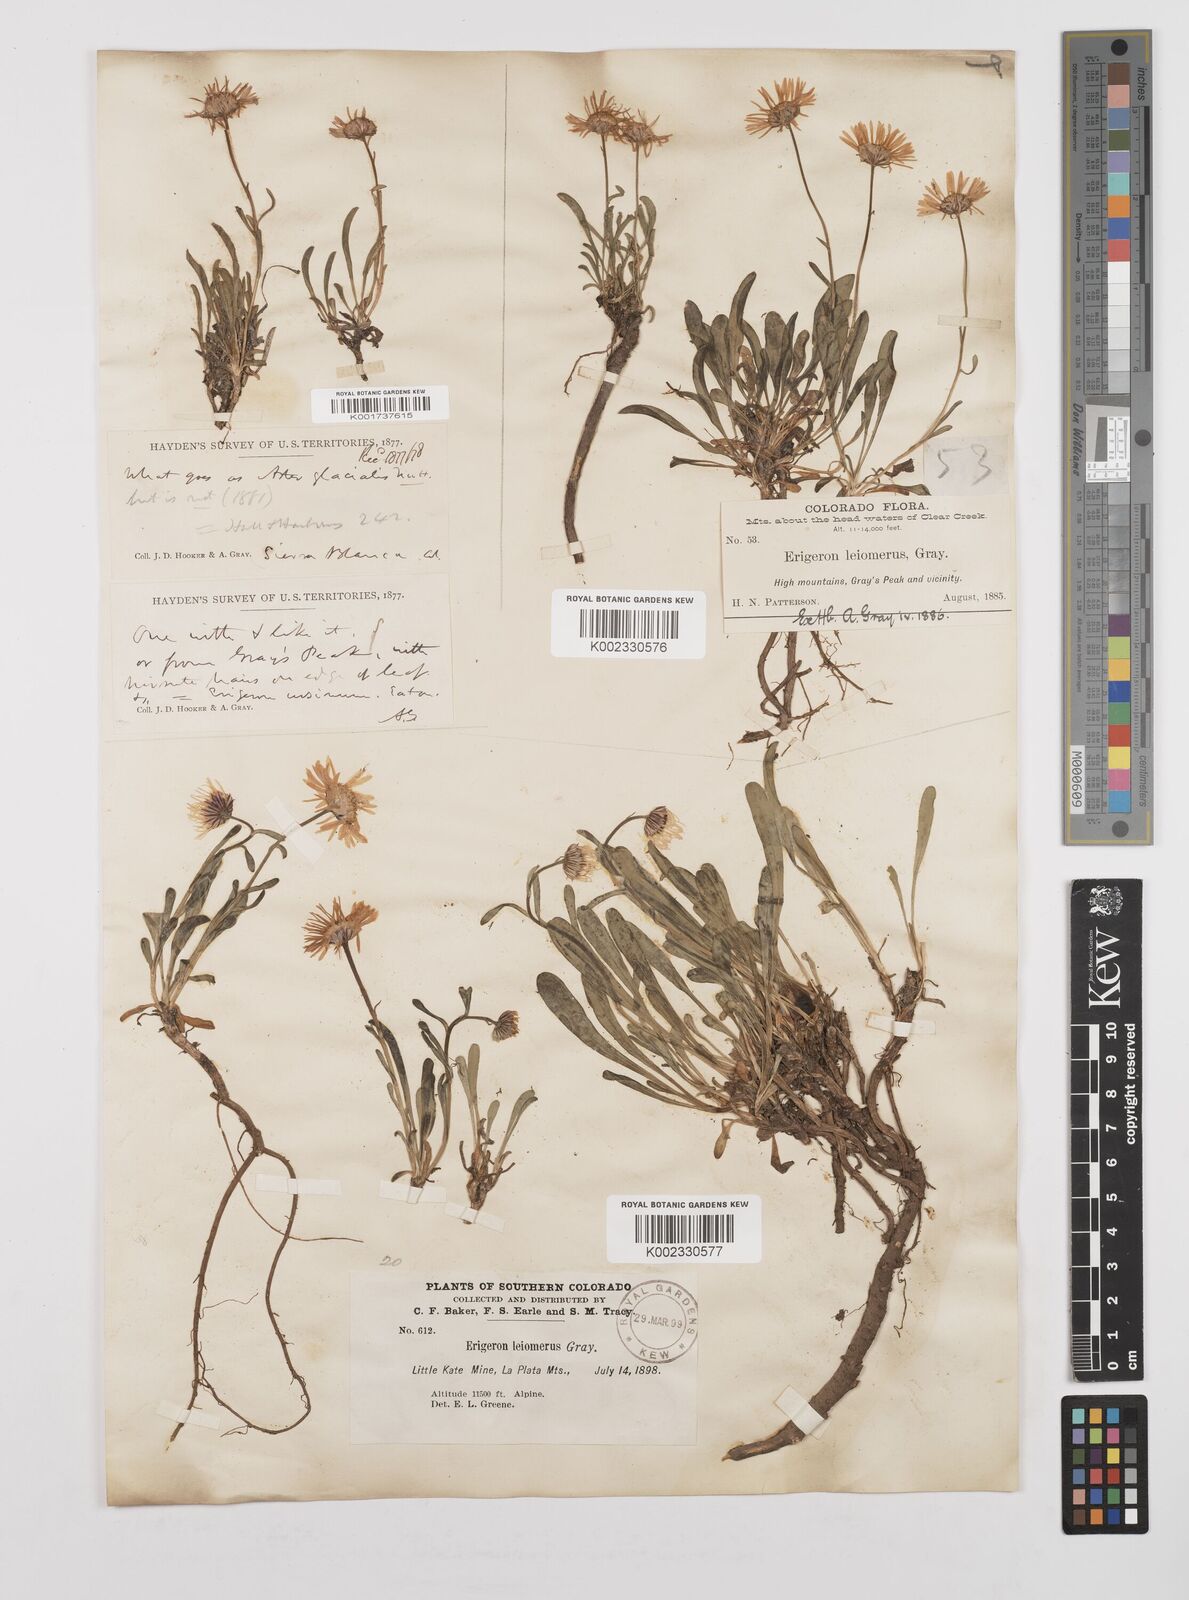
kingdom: Plantae
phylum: Tracheophyta
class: Magnoliopsida
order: Asterales
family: Asteraceae
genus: Erigeron
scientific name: Erigeron leiomerus
